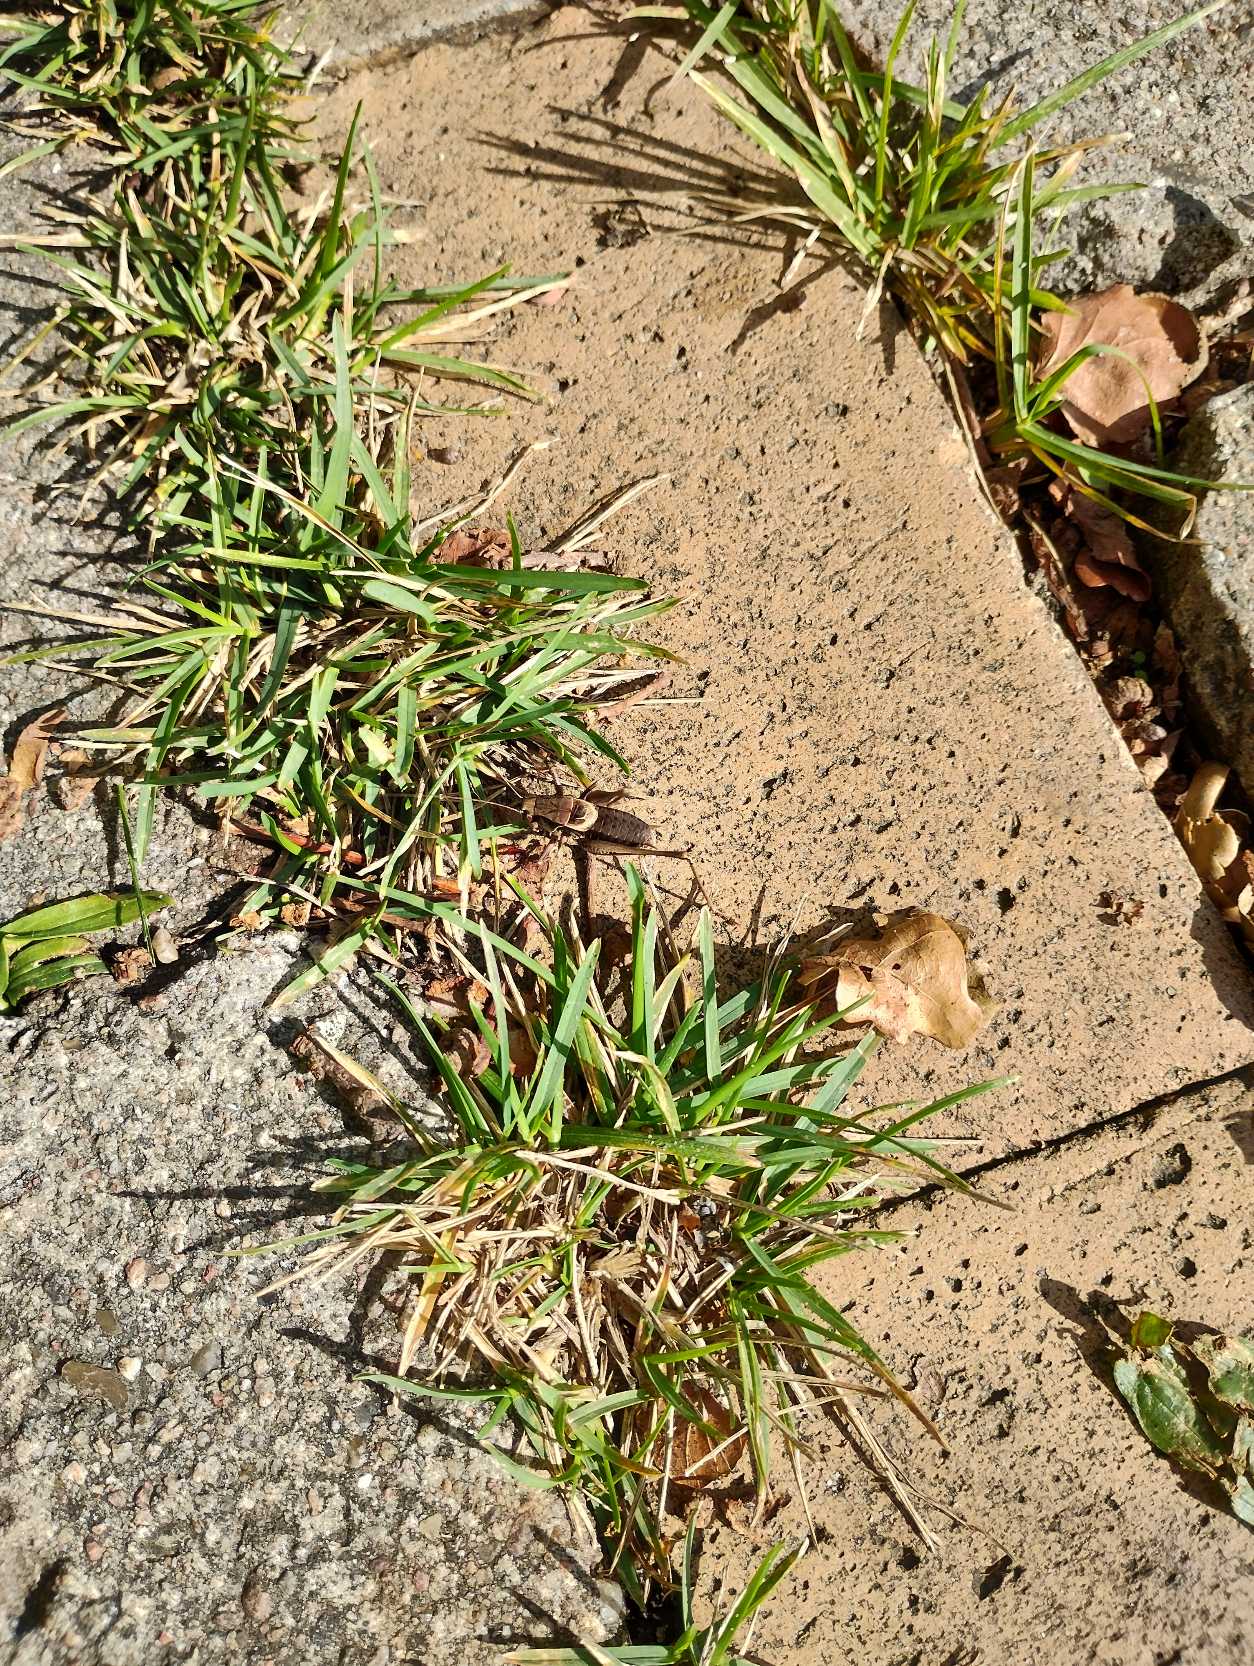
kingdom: Animalia
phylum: Arthropoda
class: Insecta
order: Orthoptera
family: Tettigoniidae
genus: Pholidoptera
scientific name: Pholidoptera griseoaptera
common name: Buskgræshoppe
